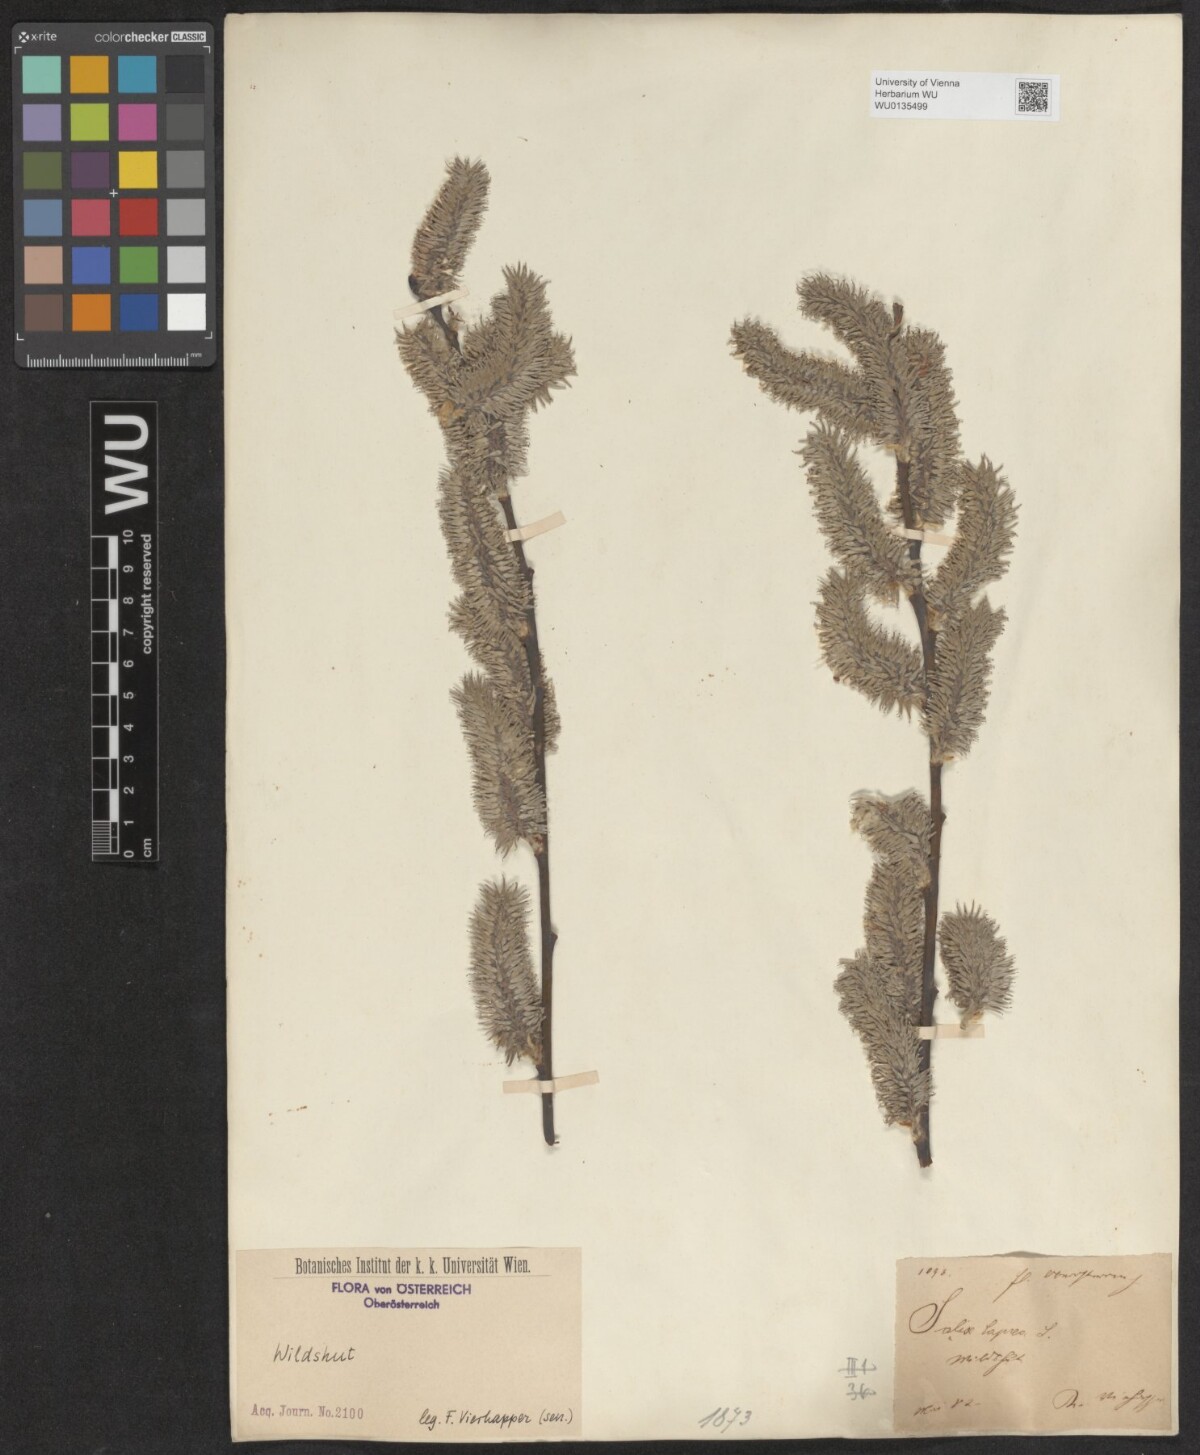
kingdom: Plantae
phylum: Tracheophyta
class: Magnoliopsida
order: Malpighiales
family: Salicaceae
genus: Salix
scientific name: Salix caprea
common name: Goat willow
